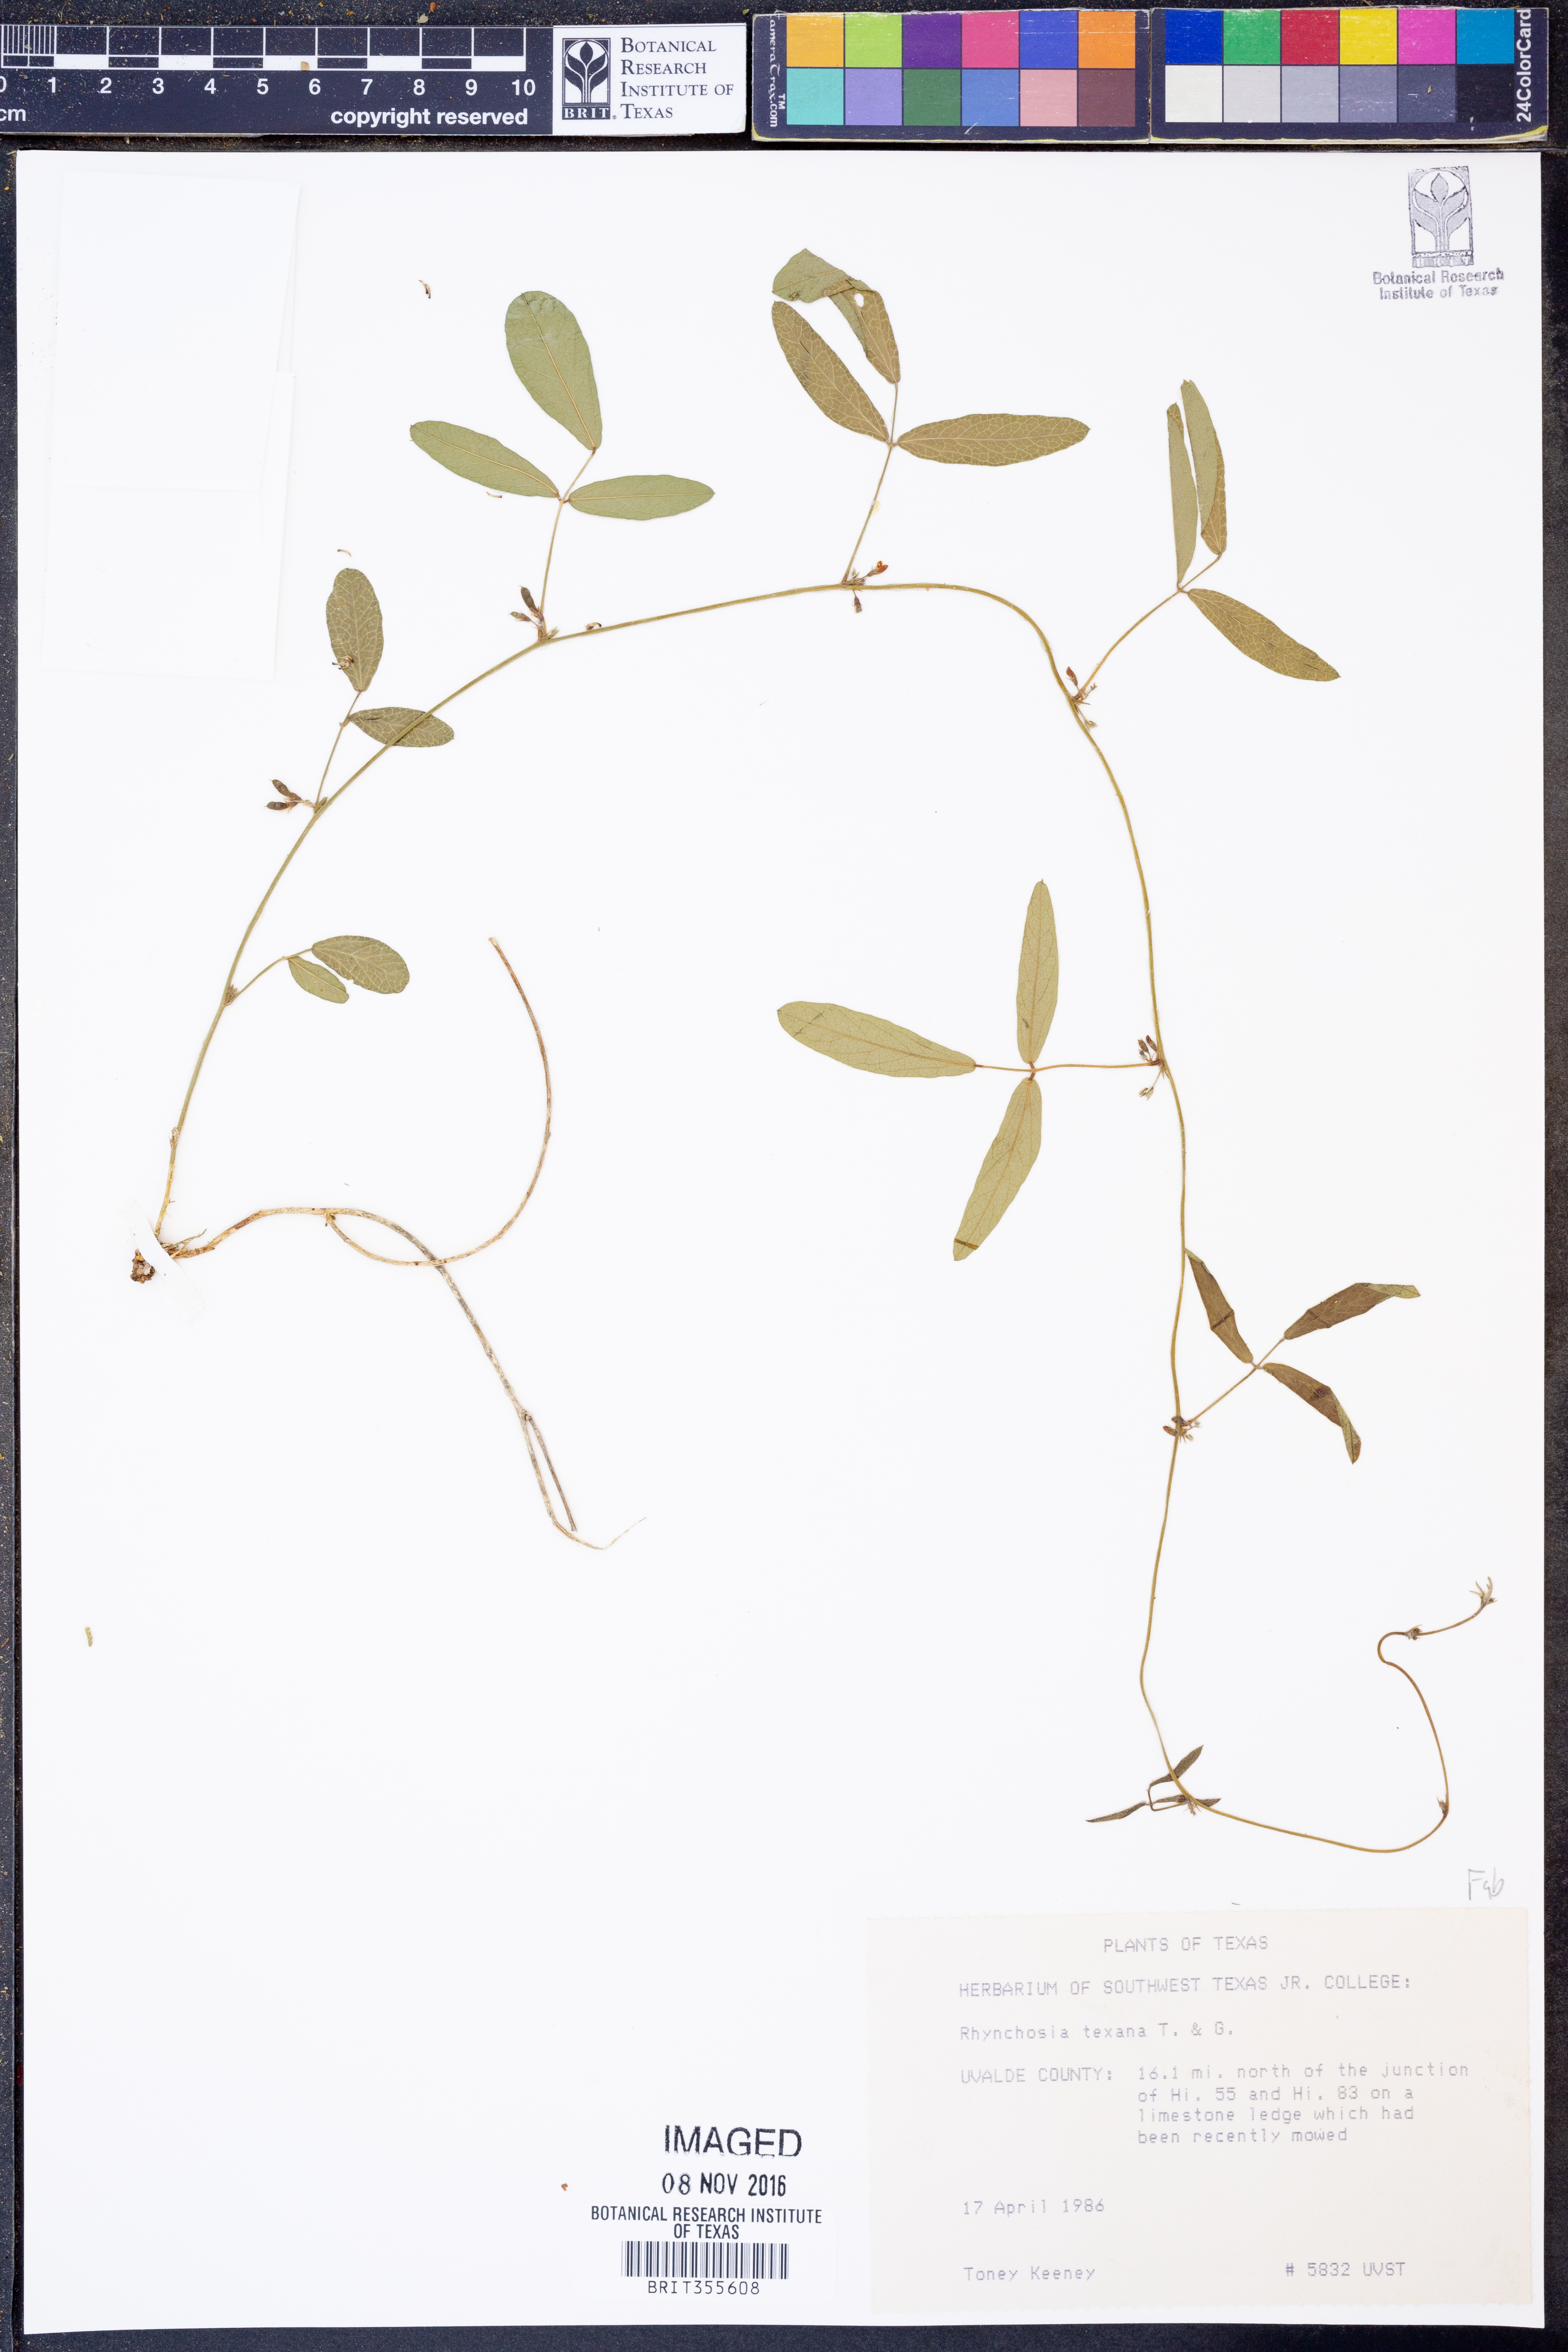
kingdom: Plantae
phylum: Tracheophyta
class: Magnoliopsida
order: Fabales
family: Fabaceae
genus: Rhynchosia
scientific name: Rhynchosia senna
